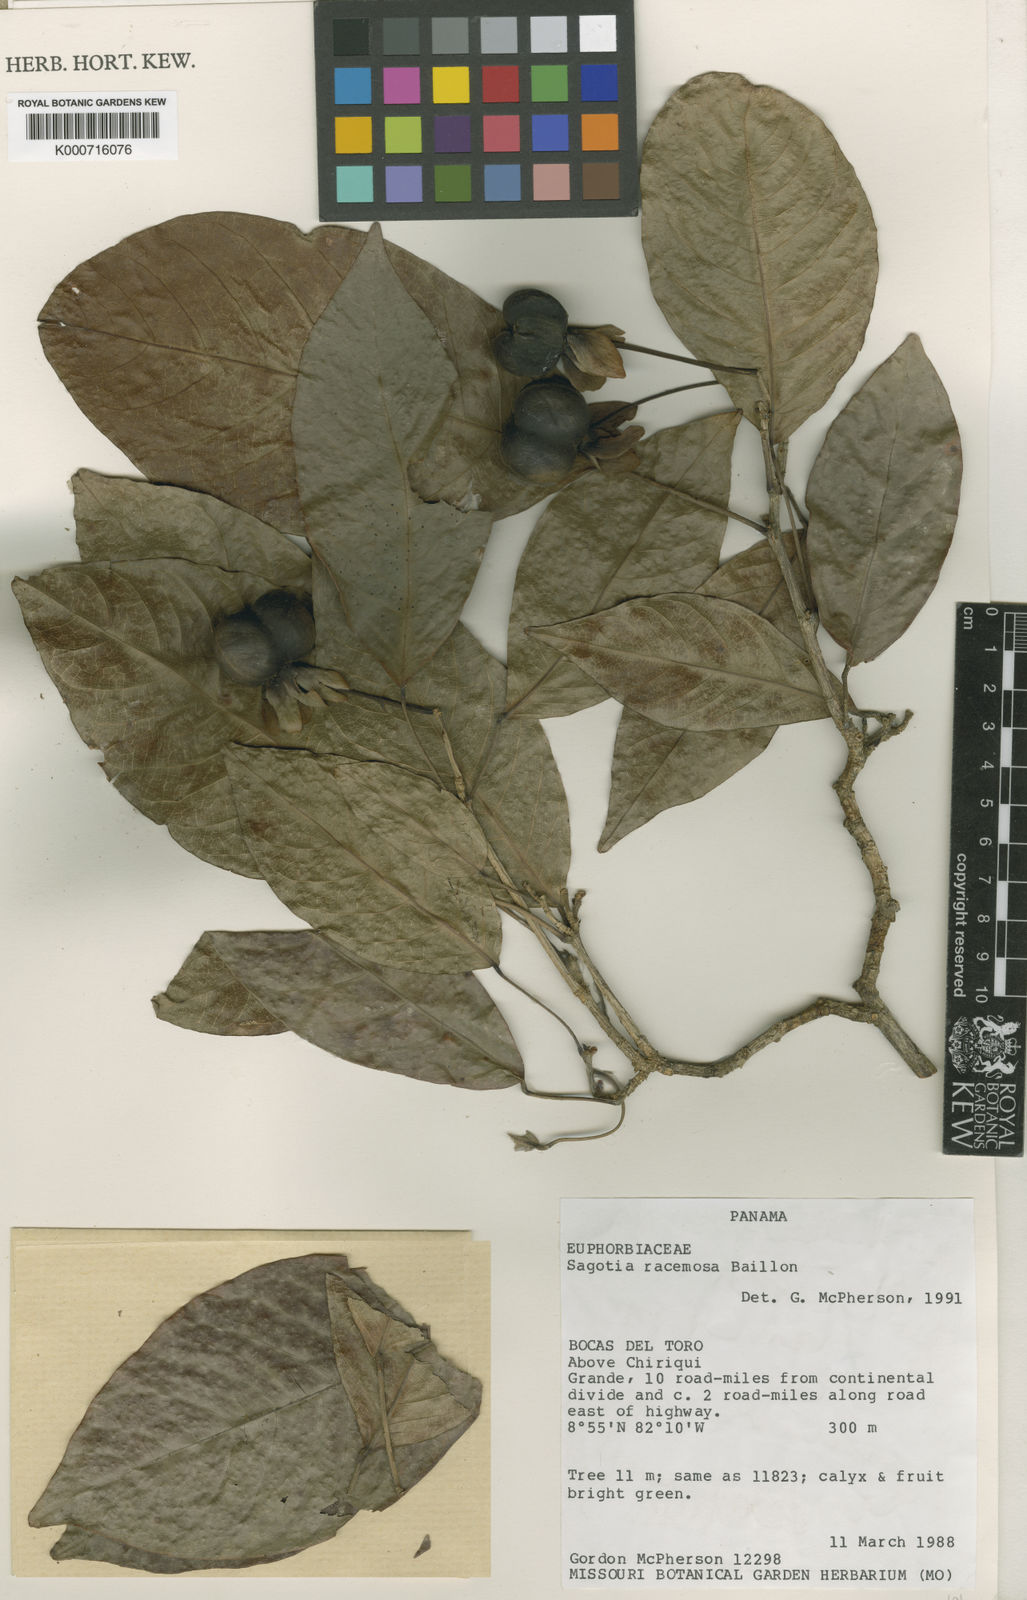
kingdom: Plantae
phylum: Tracheophyta
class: Magnoliopsida
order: Malpighiales
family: Euphorbiaceae
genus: Sagotia
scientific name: Sagotia racemosa
